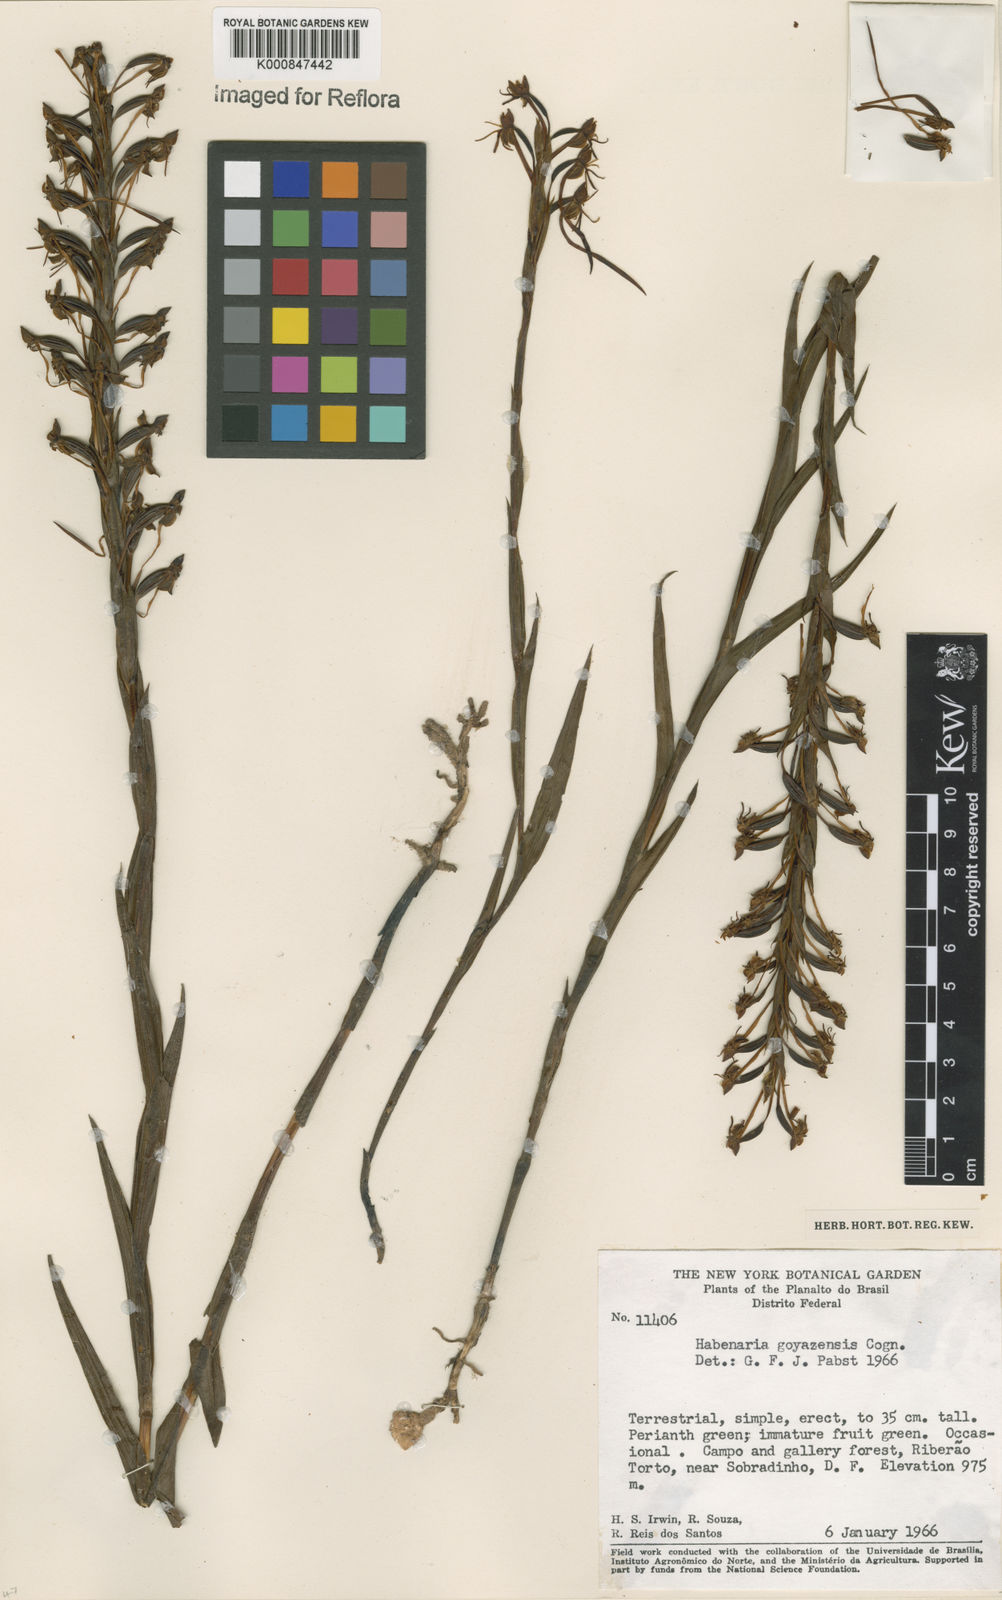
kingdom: Plantae
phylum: Tracheophyta
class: Liliopsida
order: Asparagales
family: Orchidaceae
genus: Habenaria
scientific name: Habenaria goyazensis
